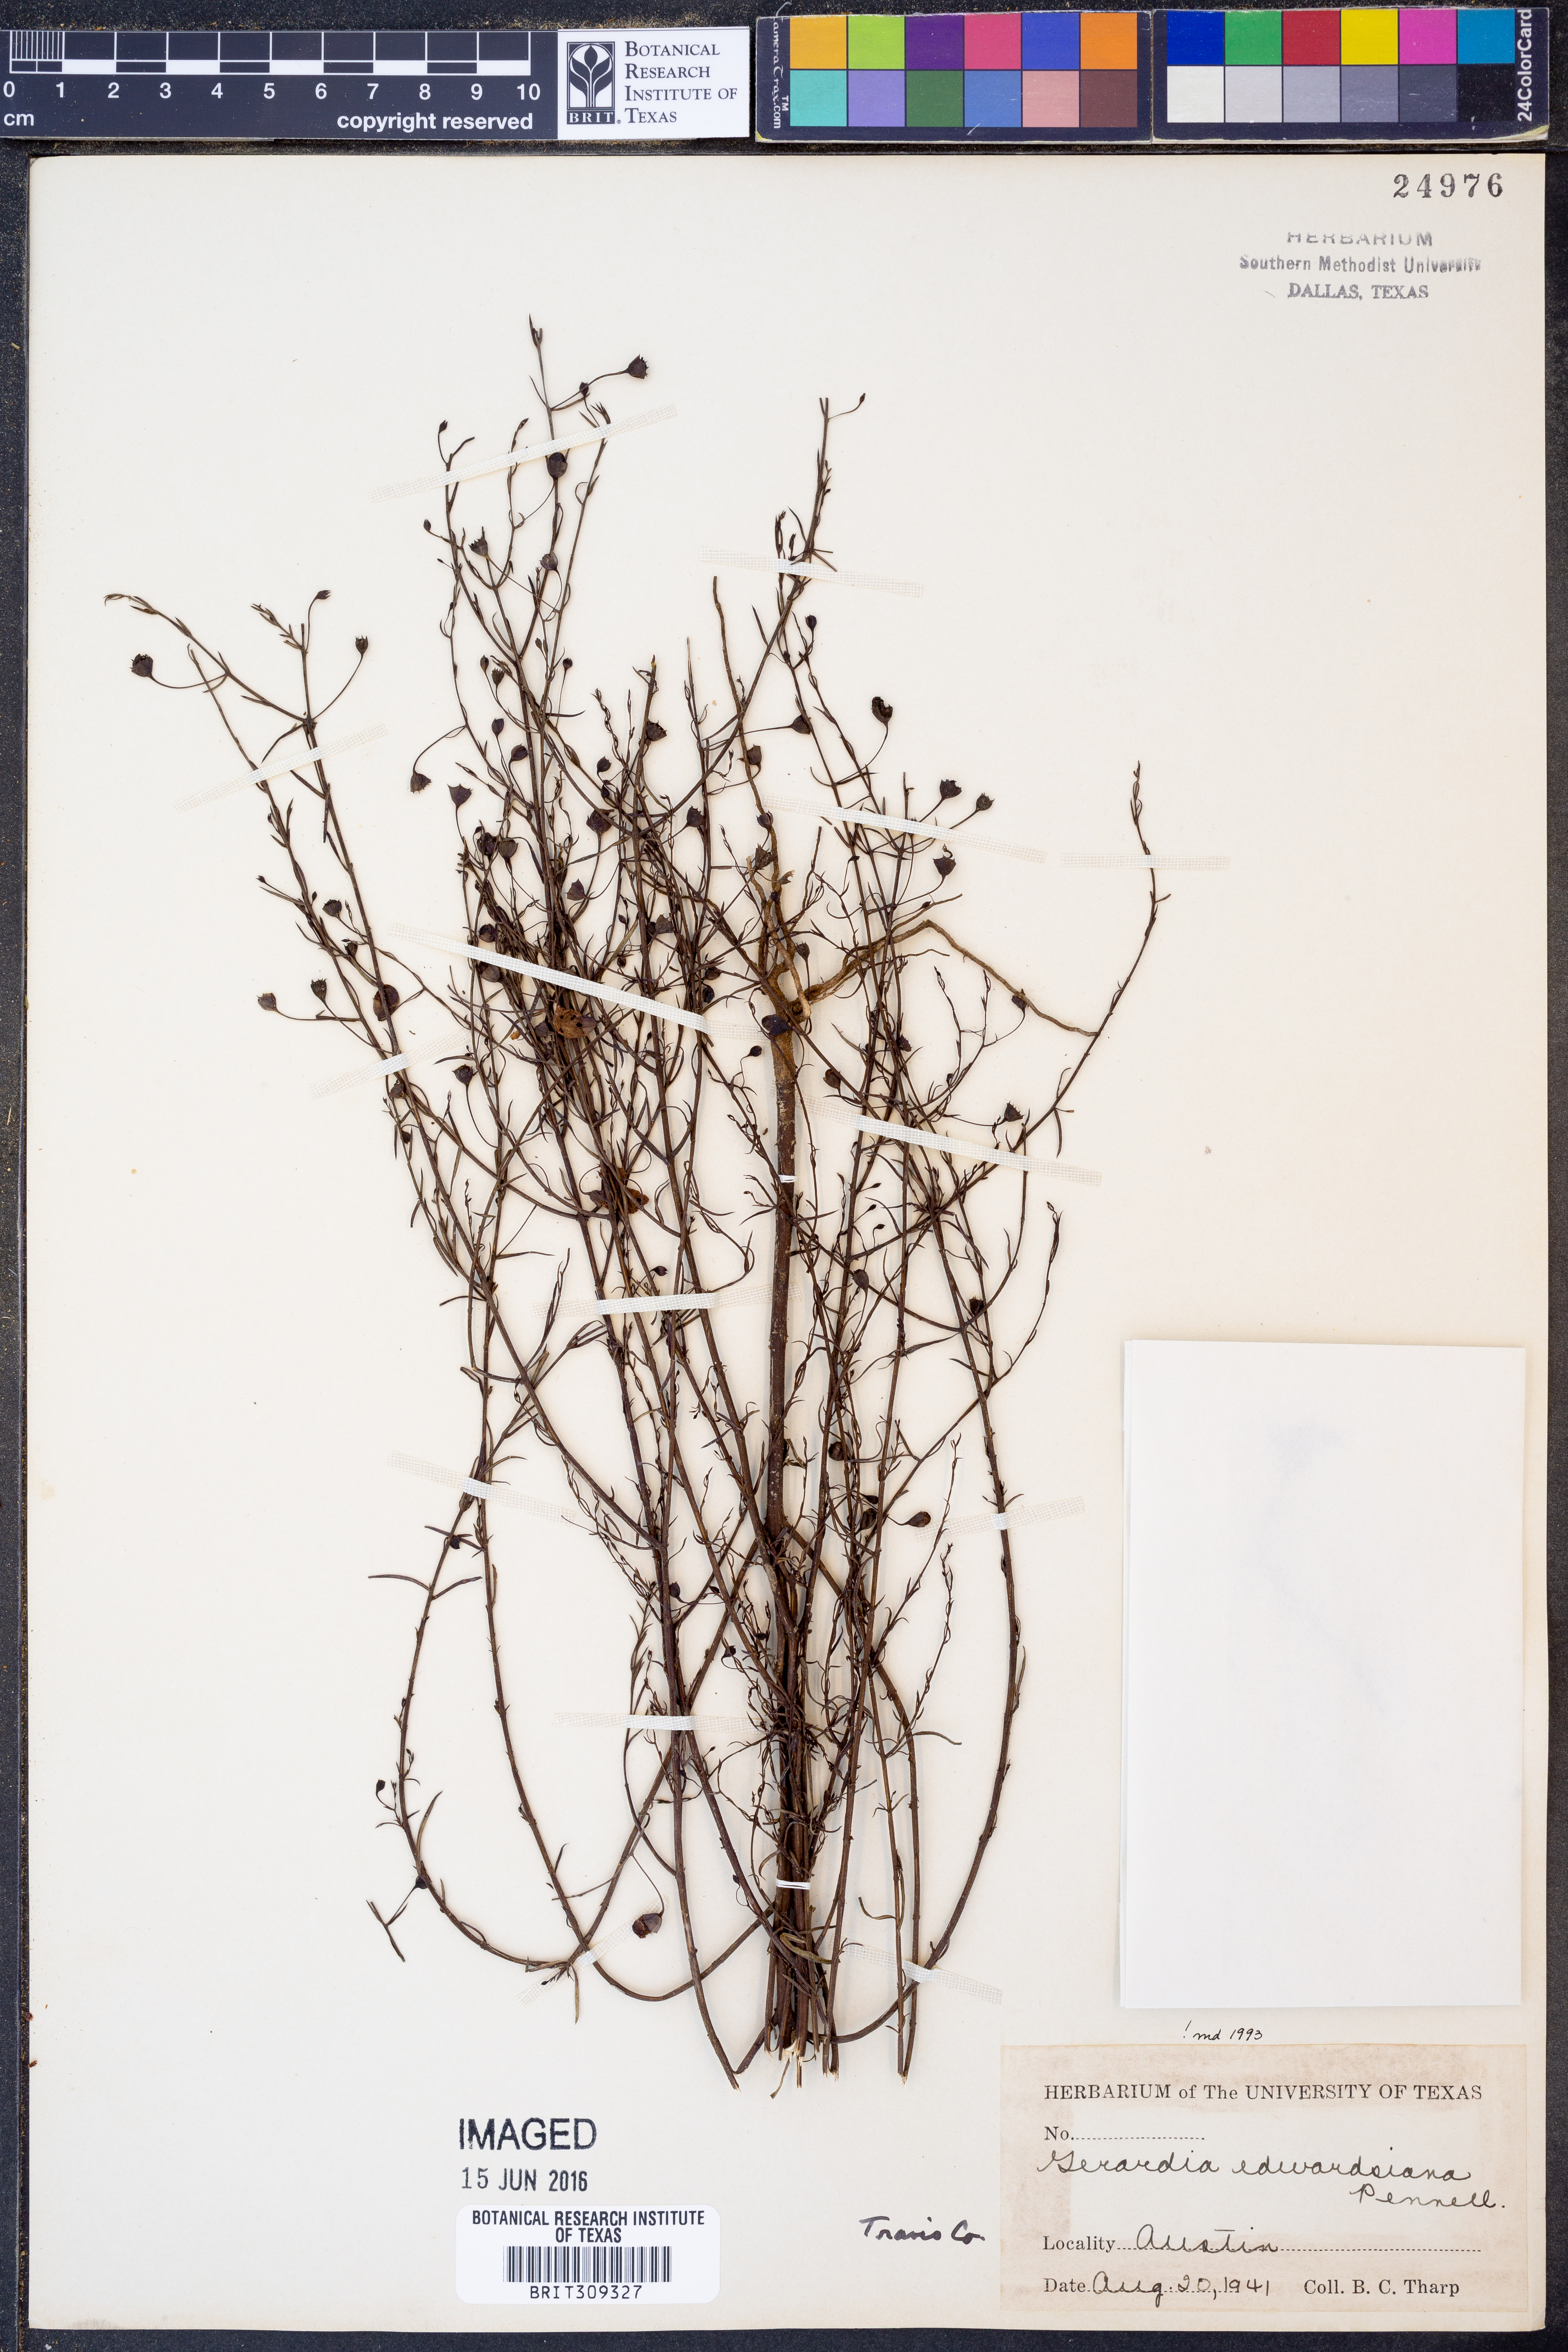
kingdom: Plantae
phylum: Tracheophyta
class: Magnoliopsida
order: Lamiales
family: Orobanchaceae
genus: Agalinis
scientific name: Agalinis edwardsiana
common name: Plateau-gerardia
